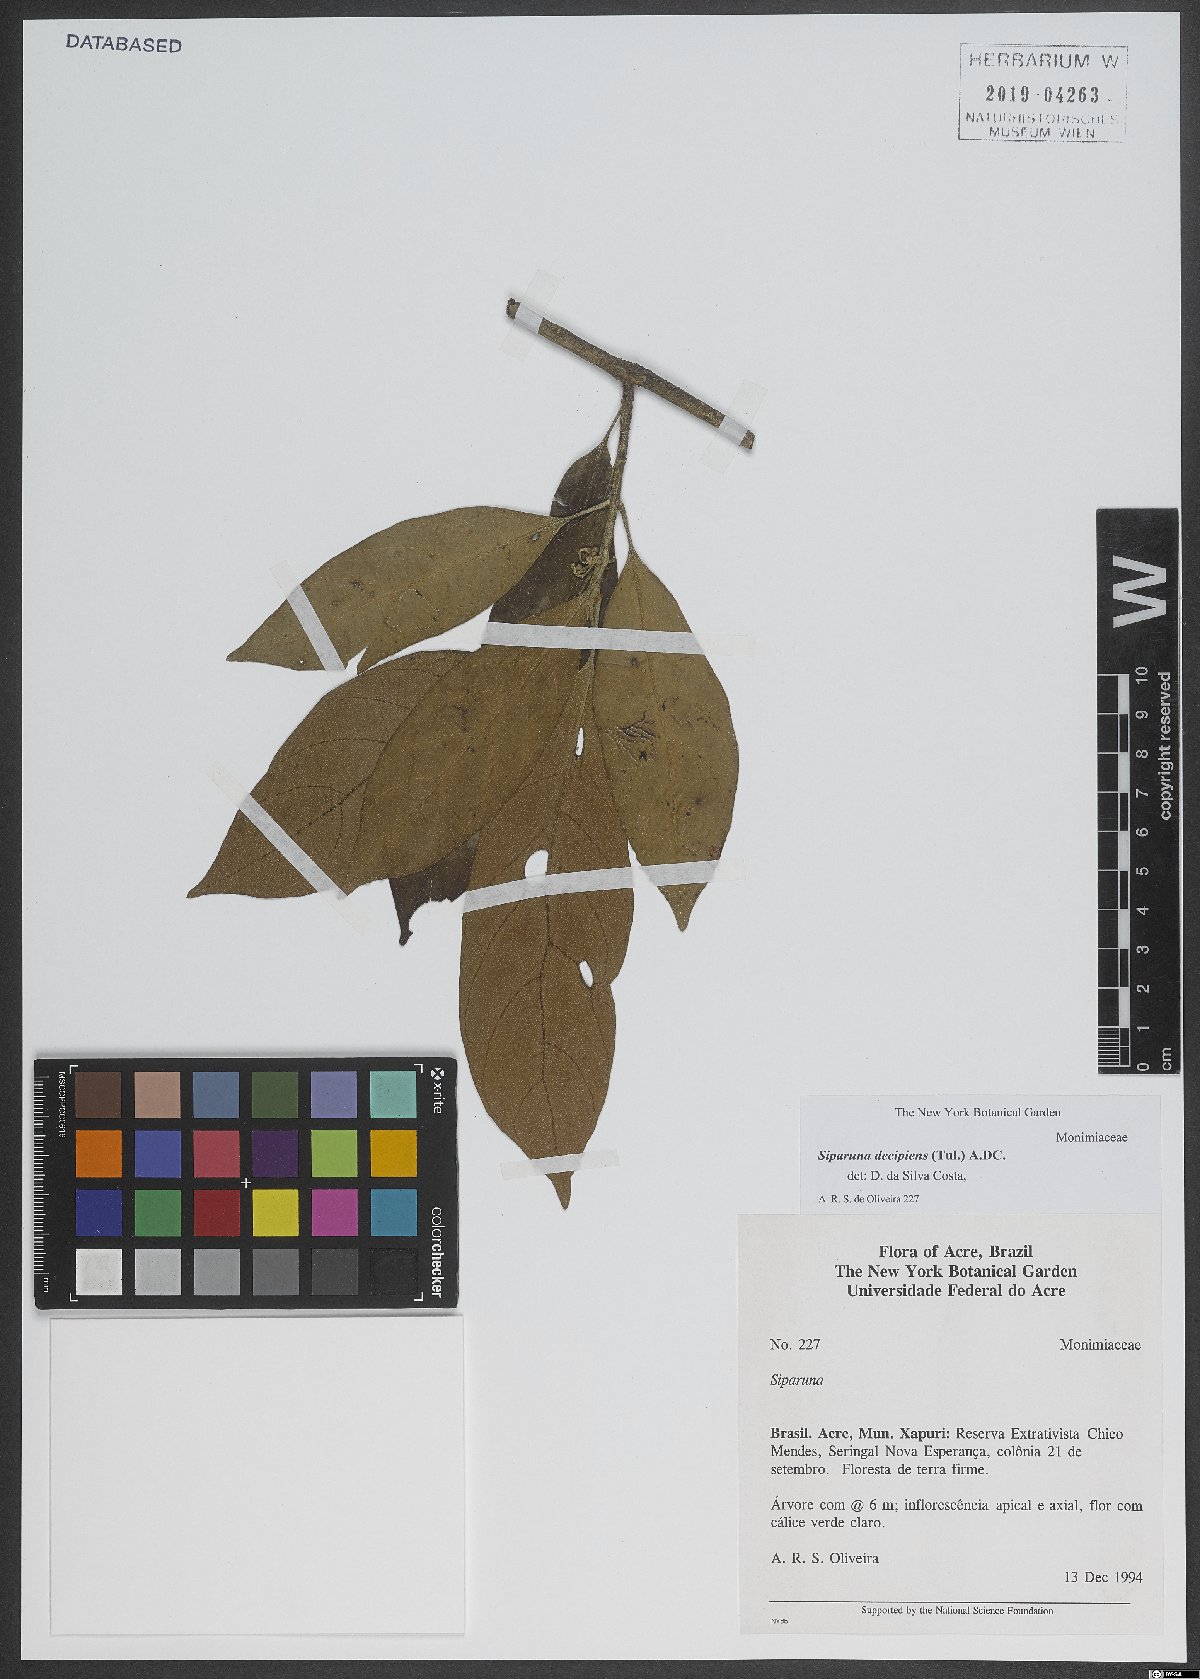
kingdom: Plantae
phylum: Tracheophyta
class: Magnoliopsida
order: Laurales
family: Siparunaceae
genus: Siparuna
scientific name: Siparuna decipiens
